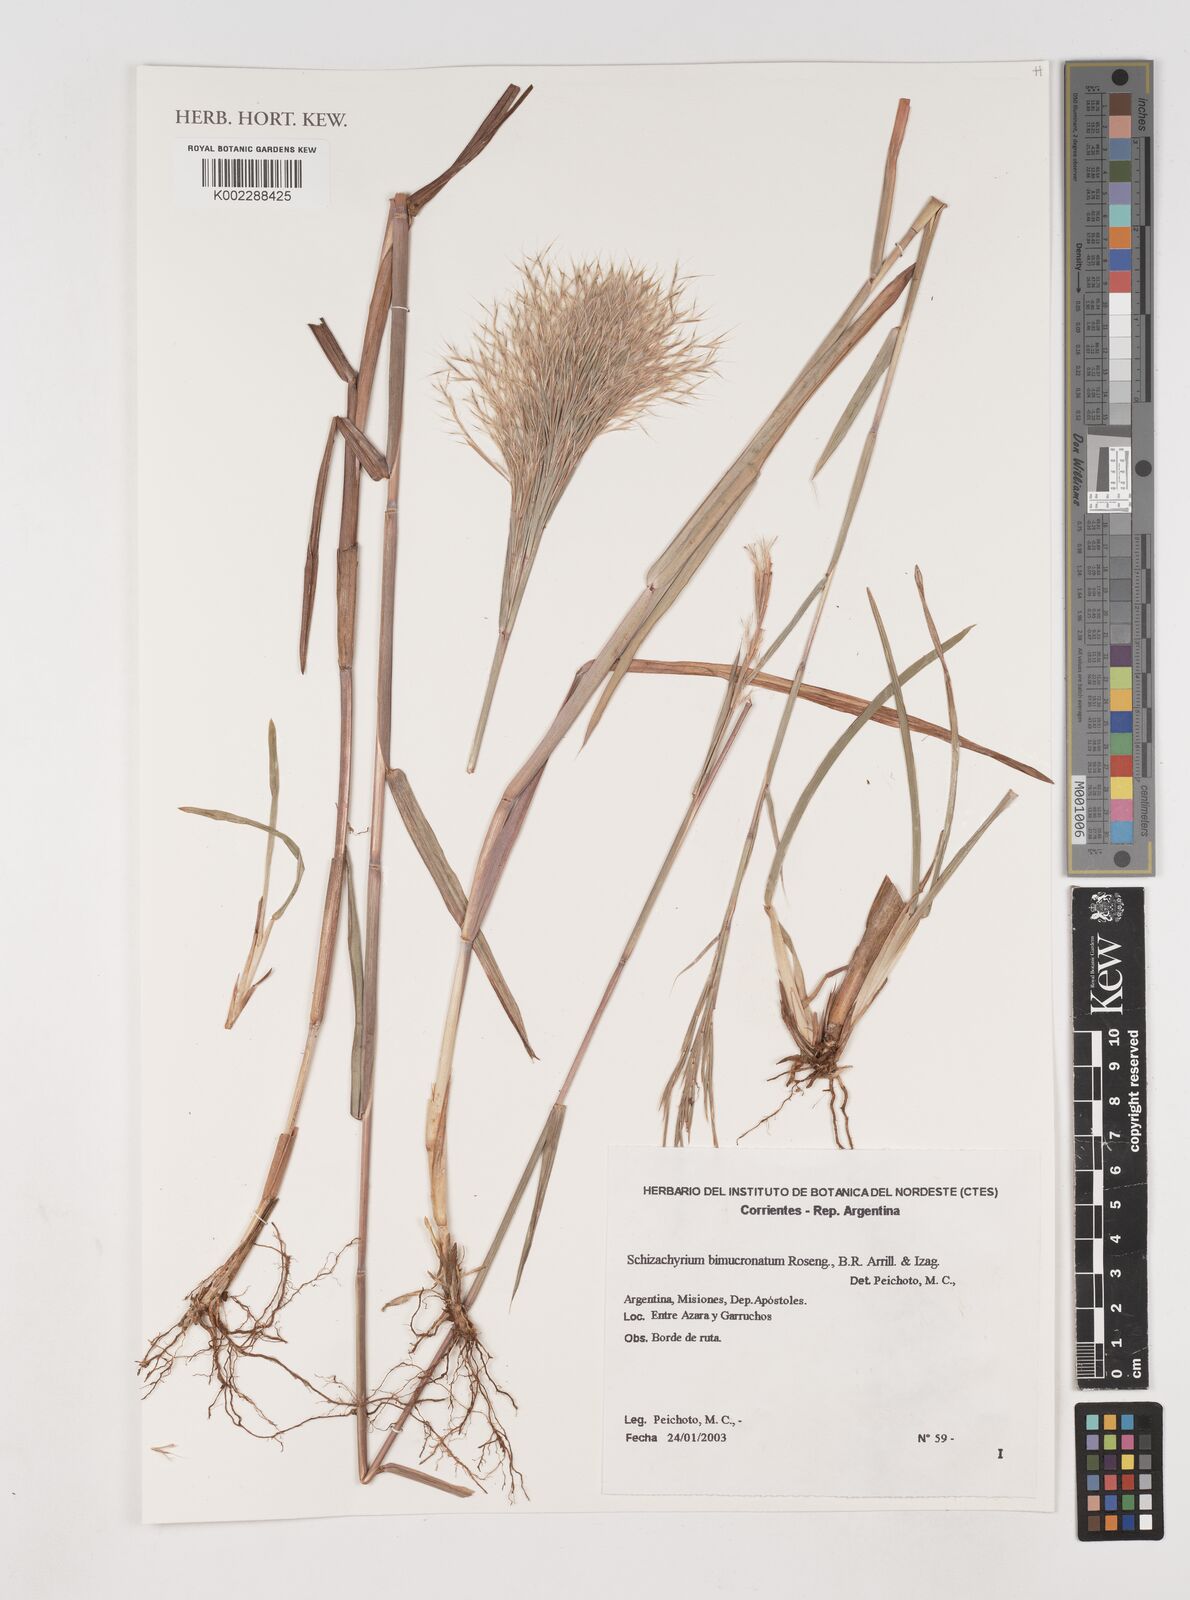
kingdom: Plantae
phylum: Tracheophyta
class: Liliopsida
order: Poales
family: Poaceae
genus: Schizachyrium
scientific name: Schizachyrium condensatum
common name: Bush beardgrass
